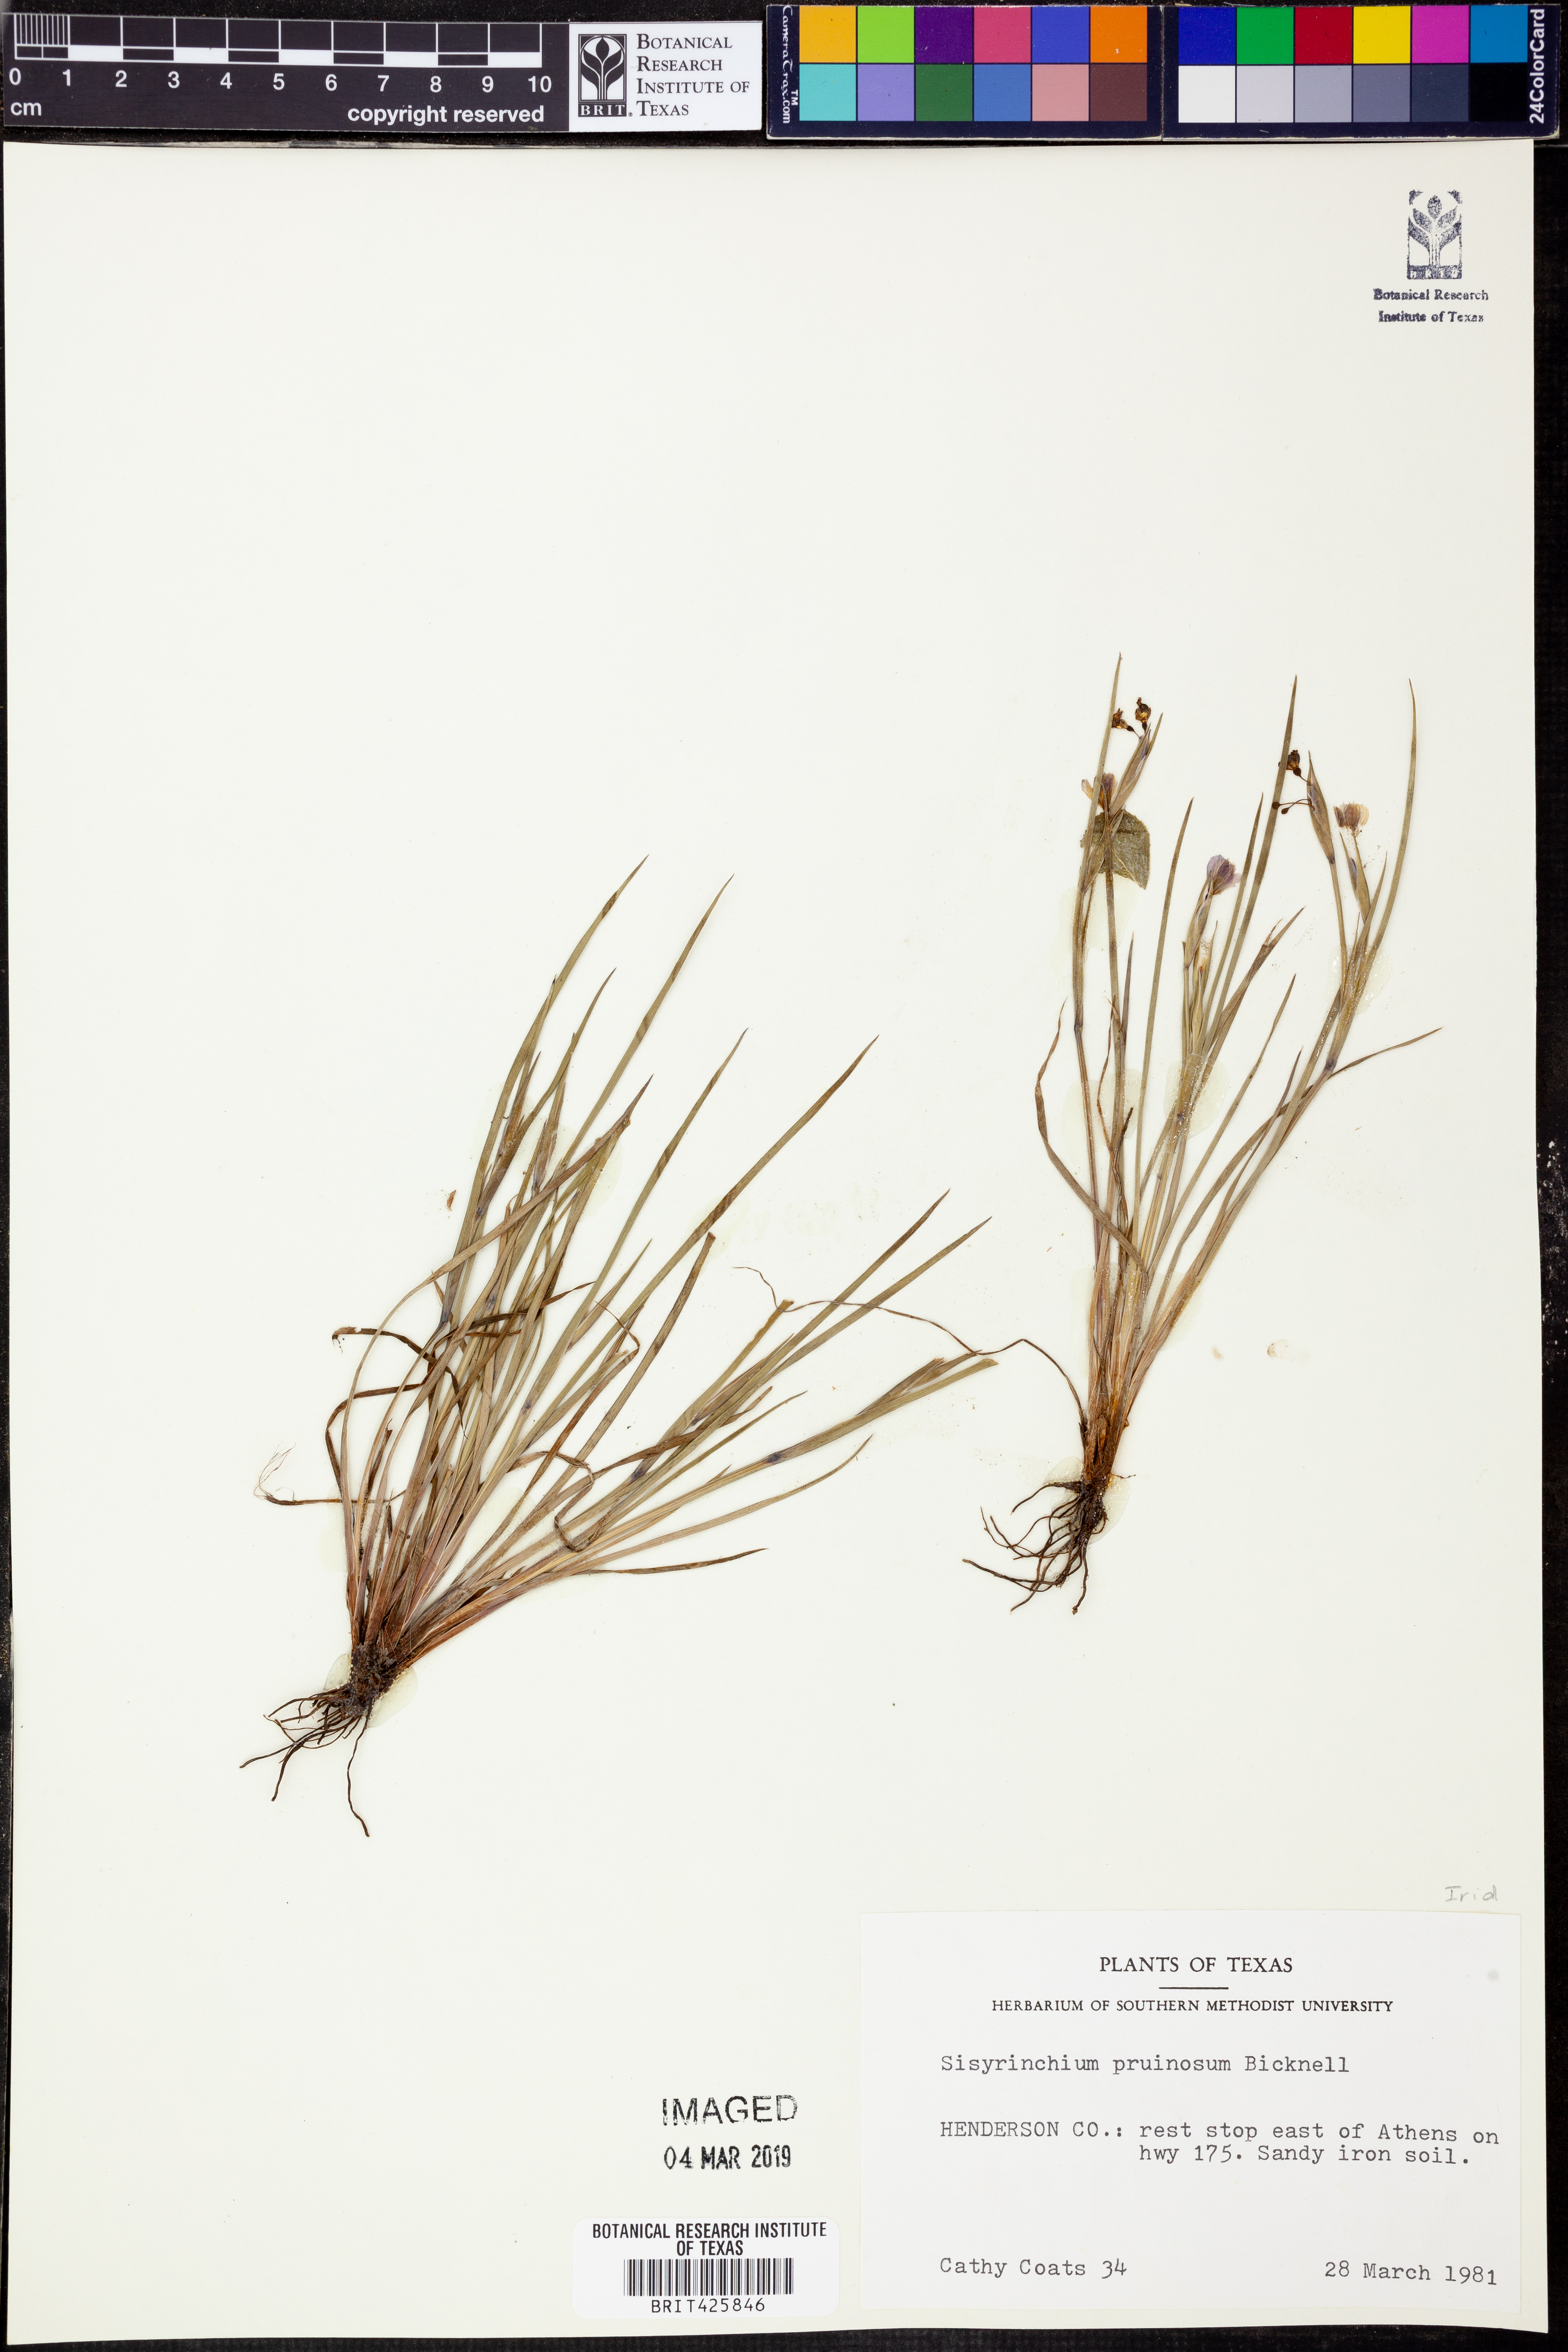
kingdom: Plantae
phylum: Tracheophyta
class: Liliopsida
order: Asparagales
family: Iridaceae
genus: Sisyrinchium
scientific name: Sisyrinchium pruinosum
